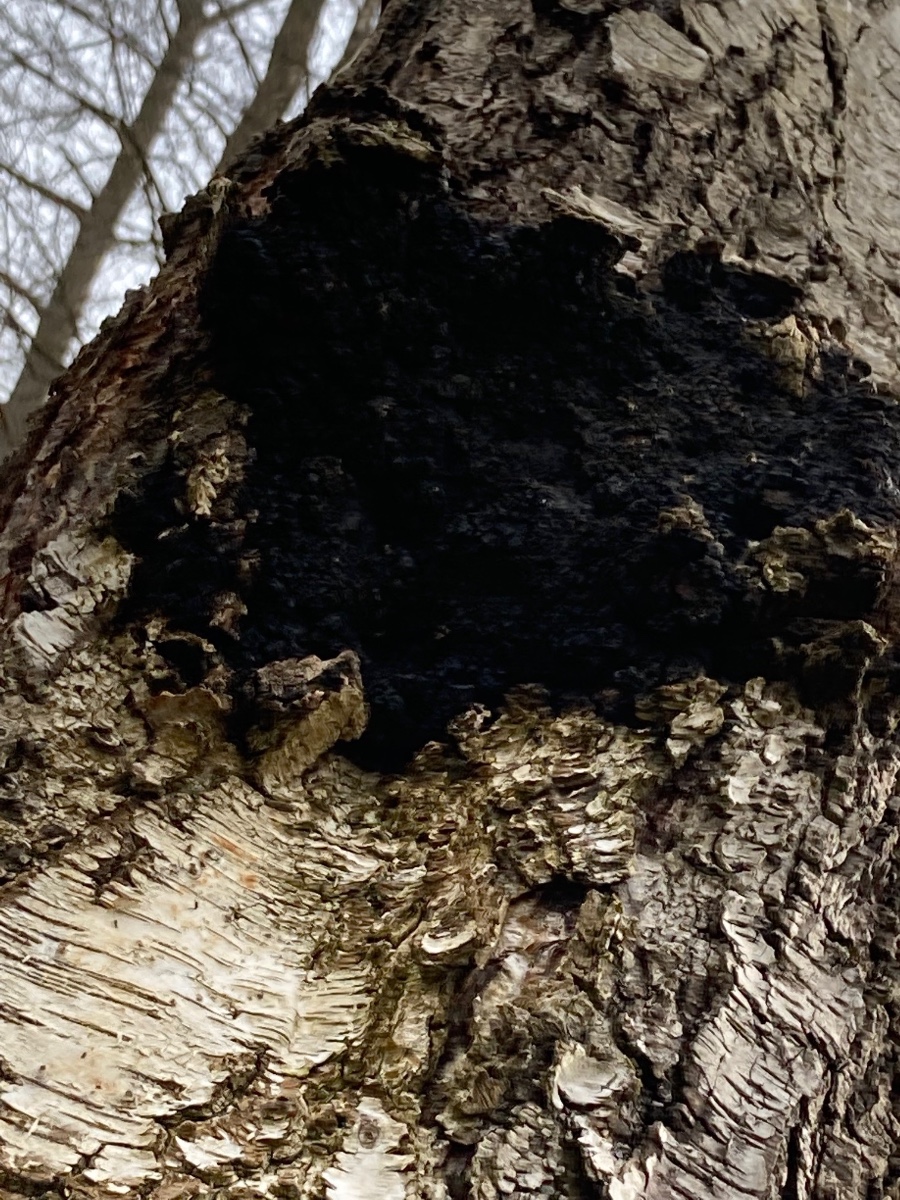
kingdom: Fungi
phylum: Basidiomycota
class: Agaricomycetes
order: Hymenochaetales
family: Hymenochaetaceae
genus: Inonotus
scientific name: Inonotus obliquus
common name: birke-spejlporesvamp
